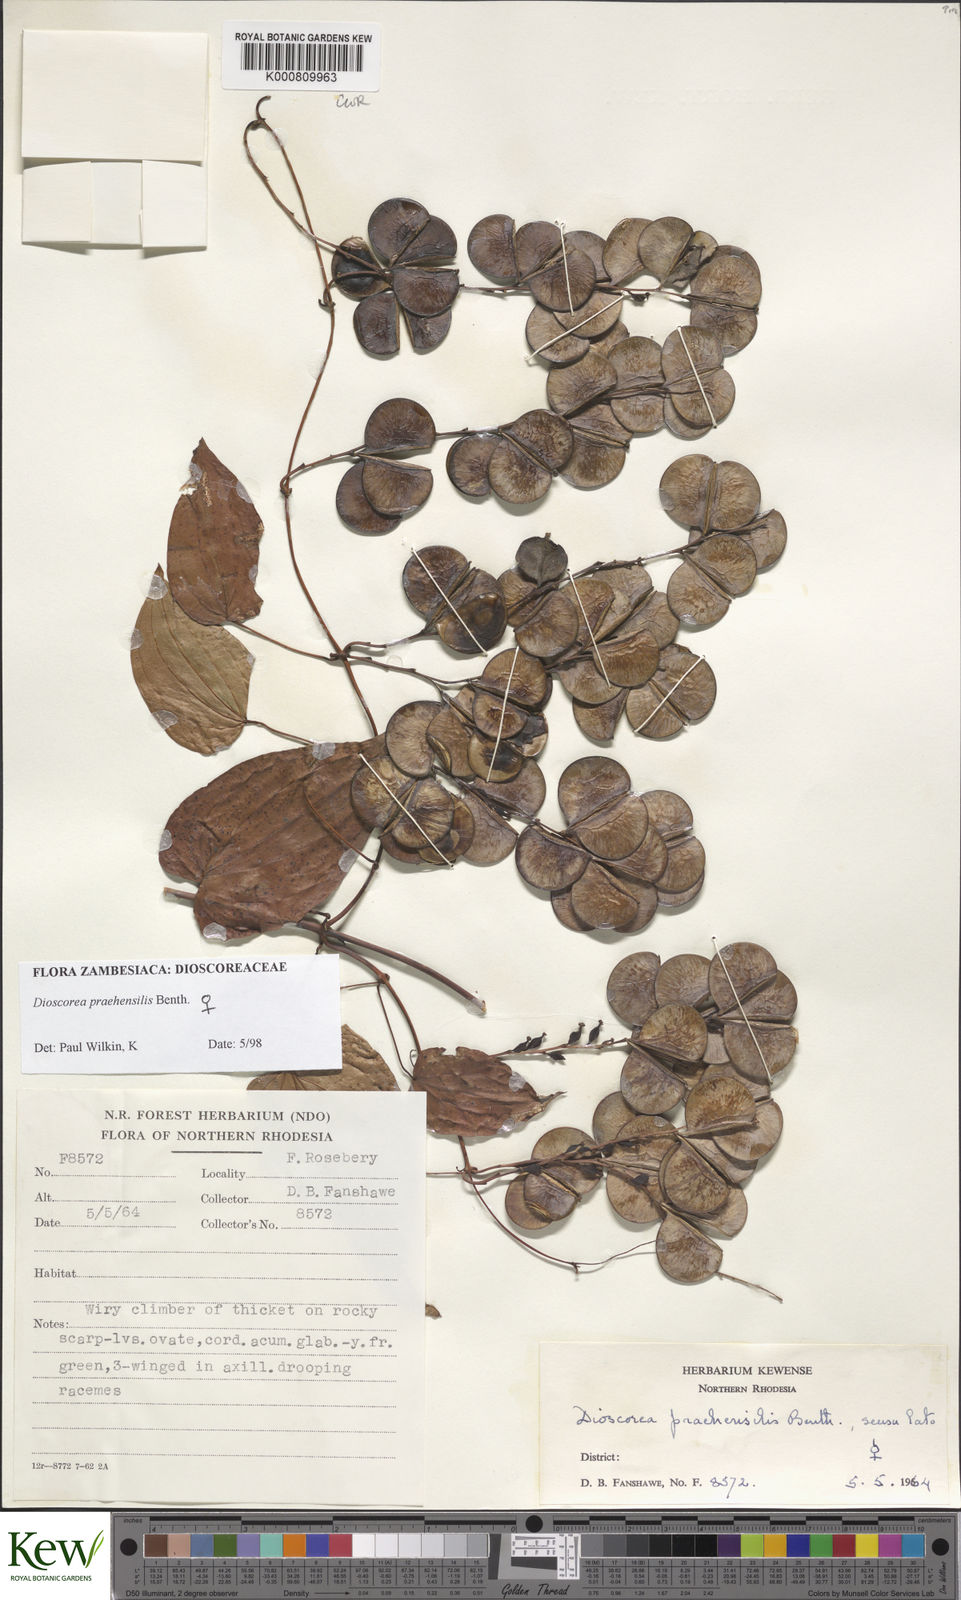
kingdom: Plantae
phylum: Tracheophyta
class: Liliopsida
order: Dioscoreales
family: Dioscoreaceae
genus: Dioscorea
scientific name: Dioscorea praehensilis
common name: Bush yam
